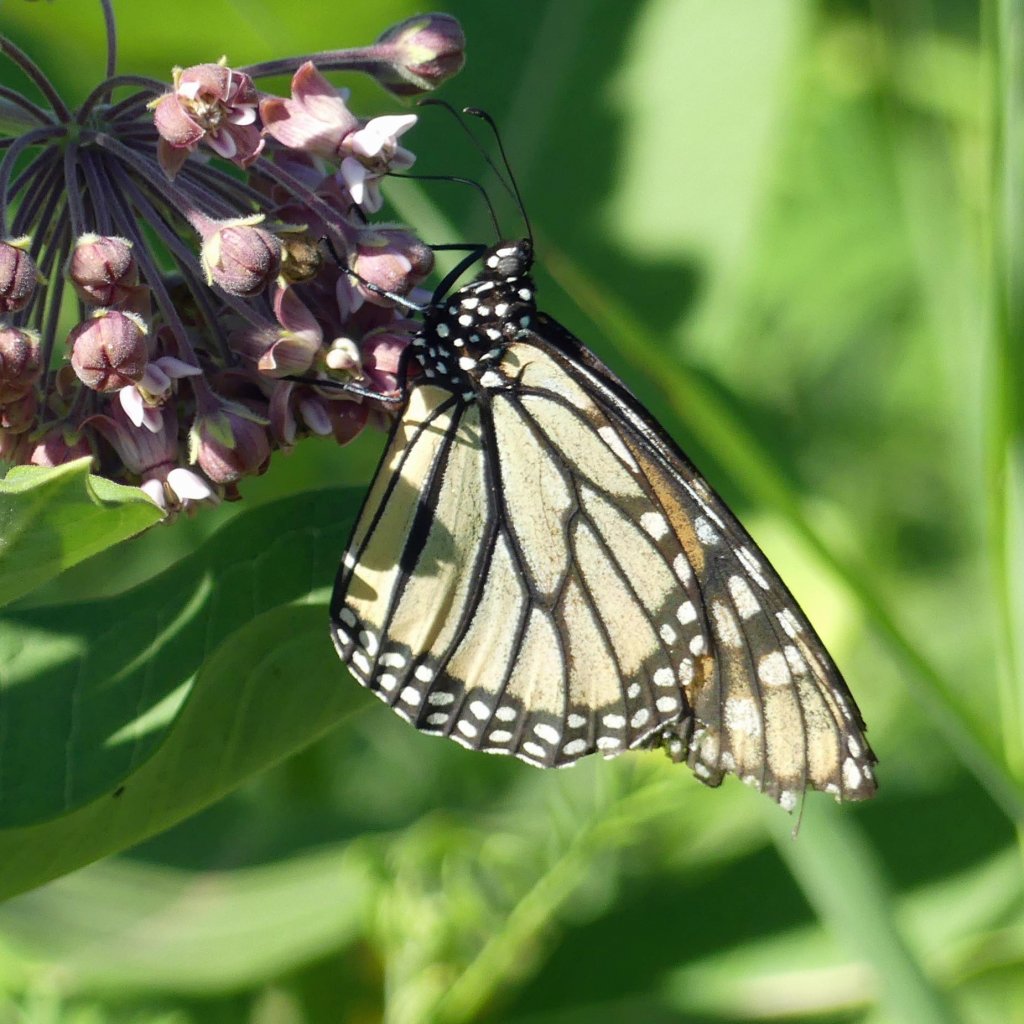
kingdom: Animalia
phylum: Arthropoda
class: Insecta
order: Lepidoptera
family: Nymphalidae
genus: Danaus
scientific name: Danaus plexippus
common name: Monarch
